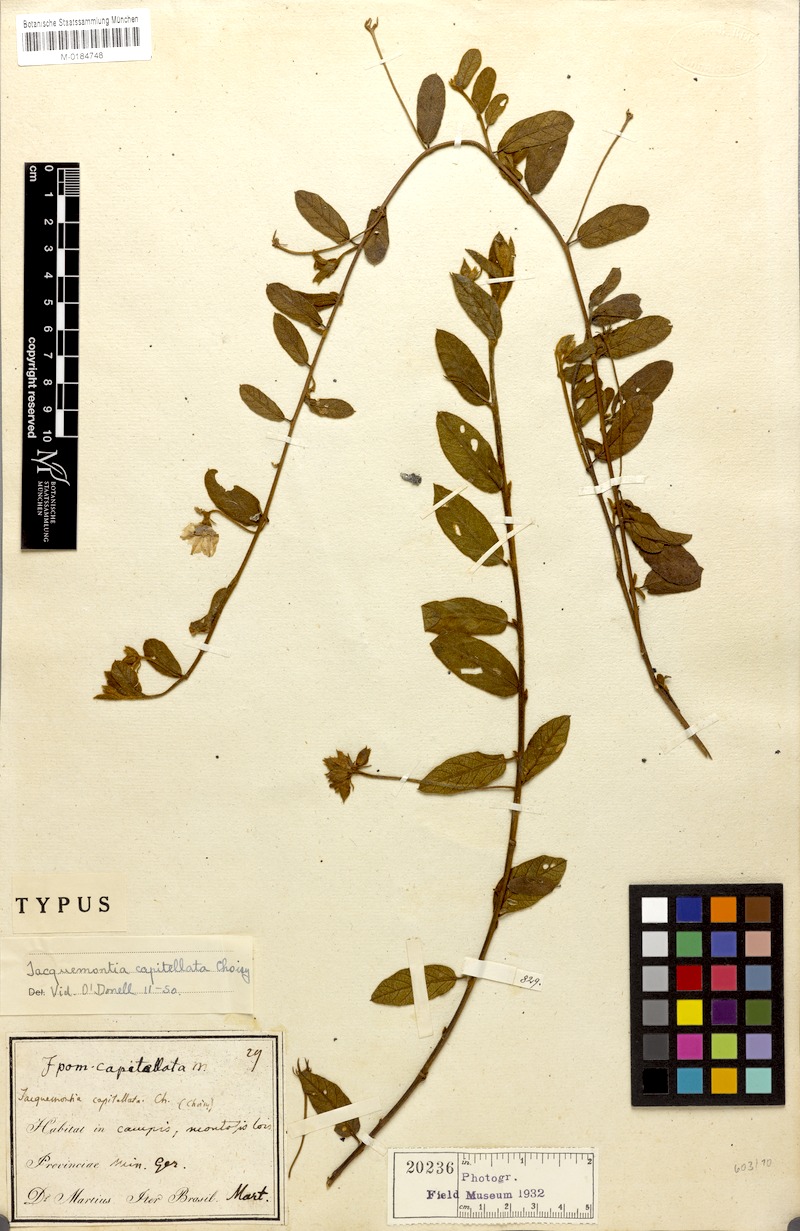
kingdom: Plantae
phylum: Tracheophyta
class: Magnoliopsida
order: Solanales
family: Convolvulaceae
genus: Jacquemontia
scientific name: Jacquemontia prostrata
